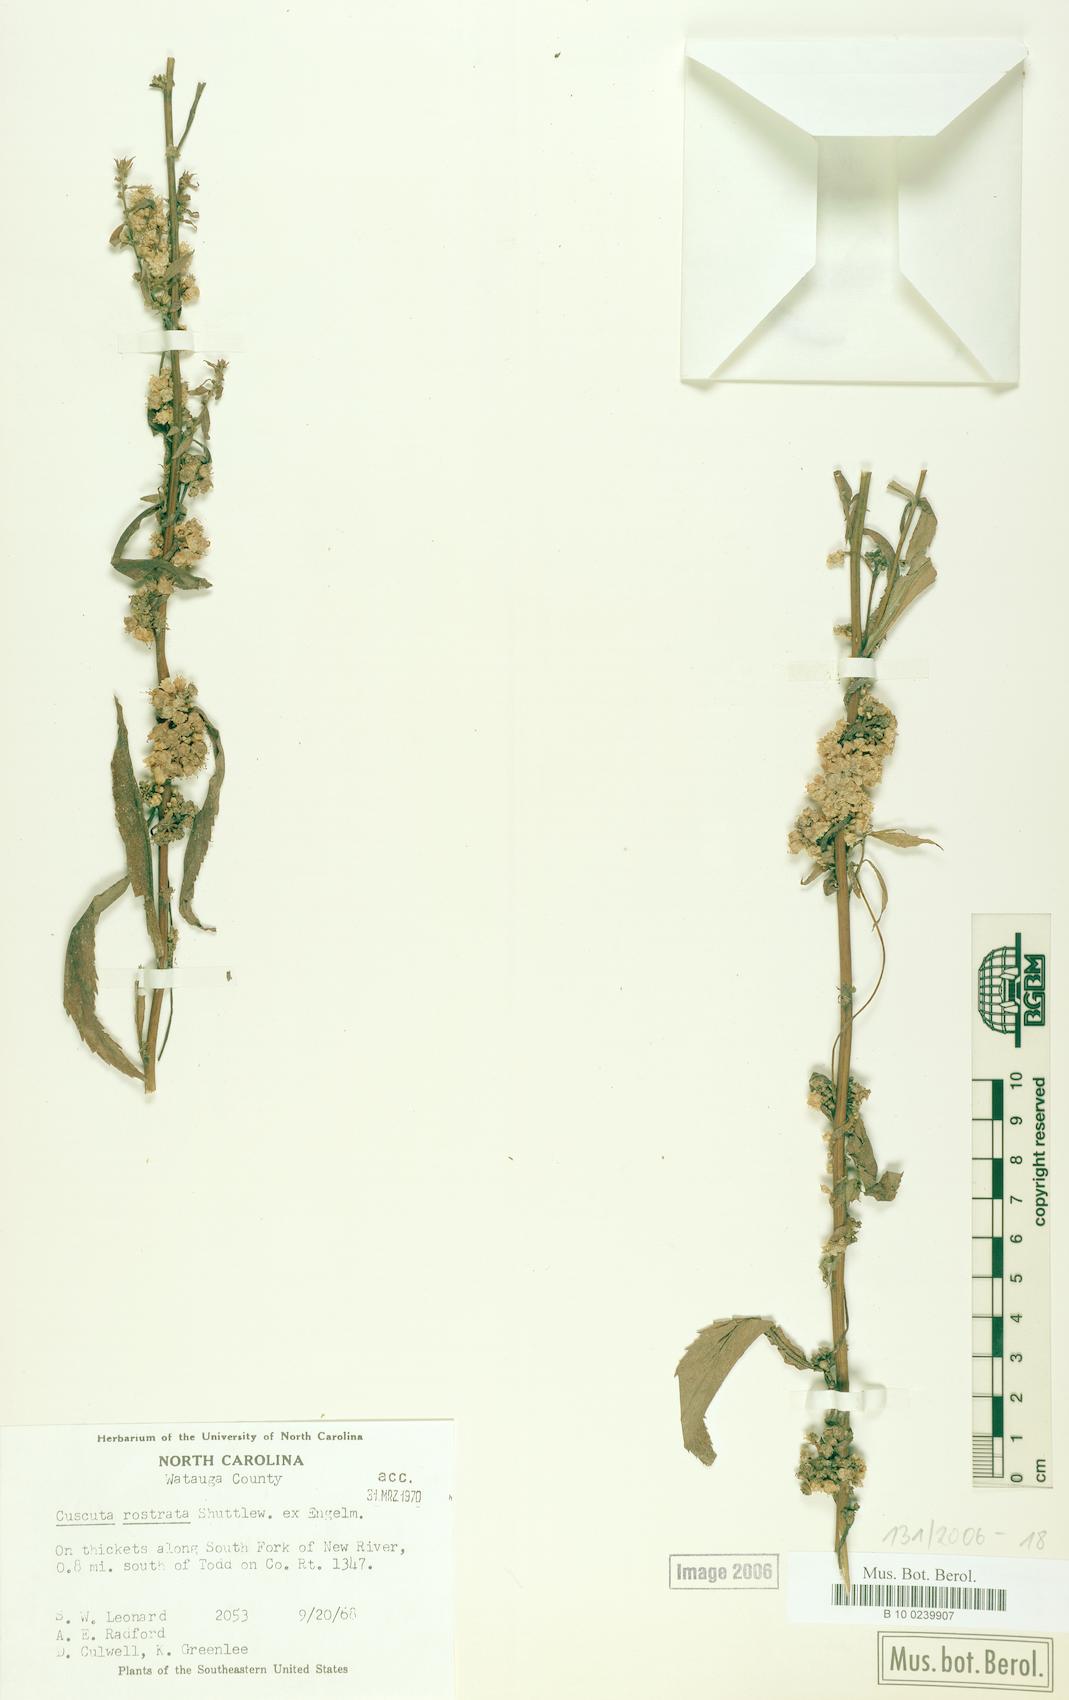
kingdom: Plantae
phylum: Tracheophyta
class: Magnoliopsida
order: Solanales
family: Convolvulaceae
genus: Cuscuta
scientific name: Cuscuta rostrata
